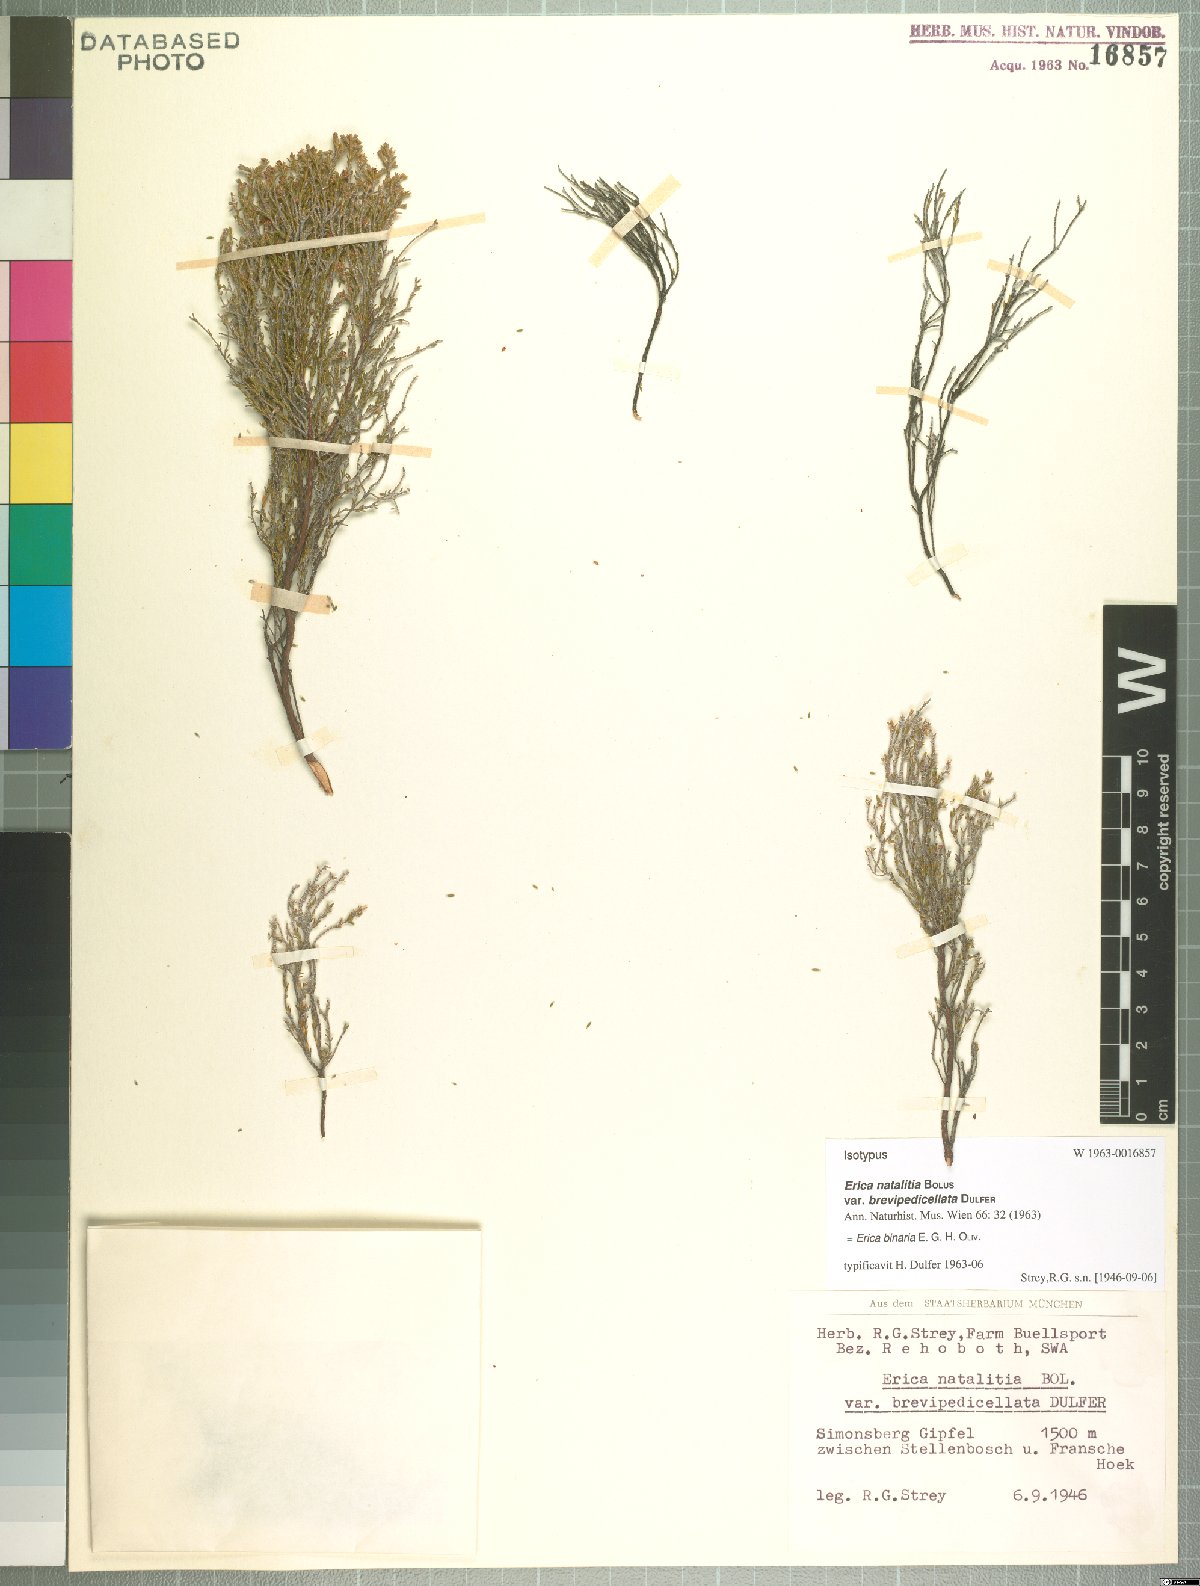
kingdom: Plantae
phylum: Tracheophyta
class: Magnoliopsida
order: Ericales
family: Ericaceae
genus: Erica
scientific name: Erica binaria
